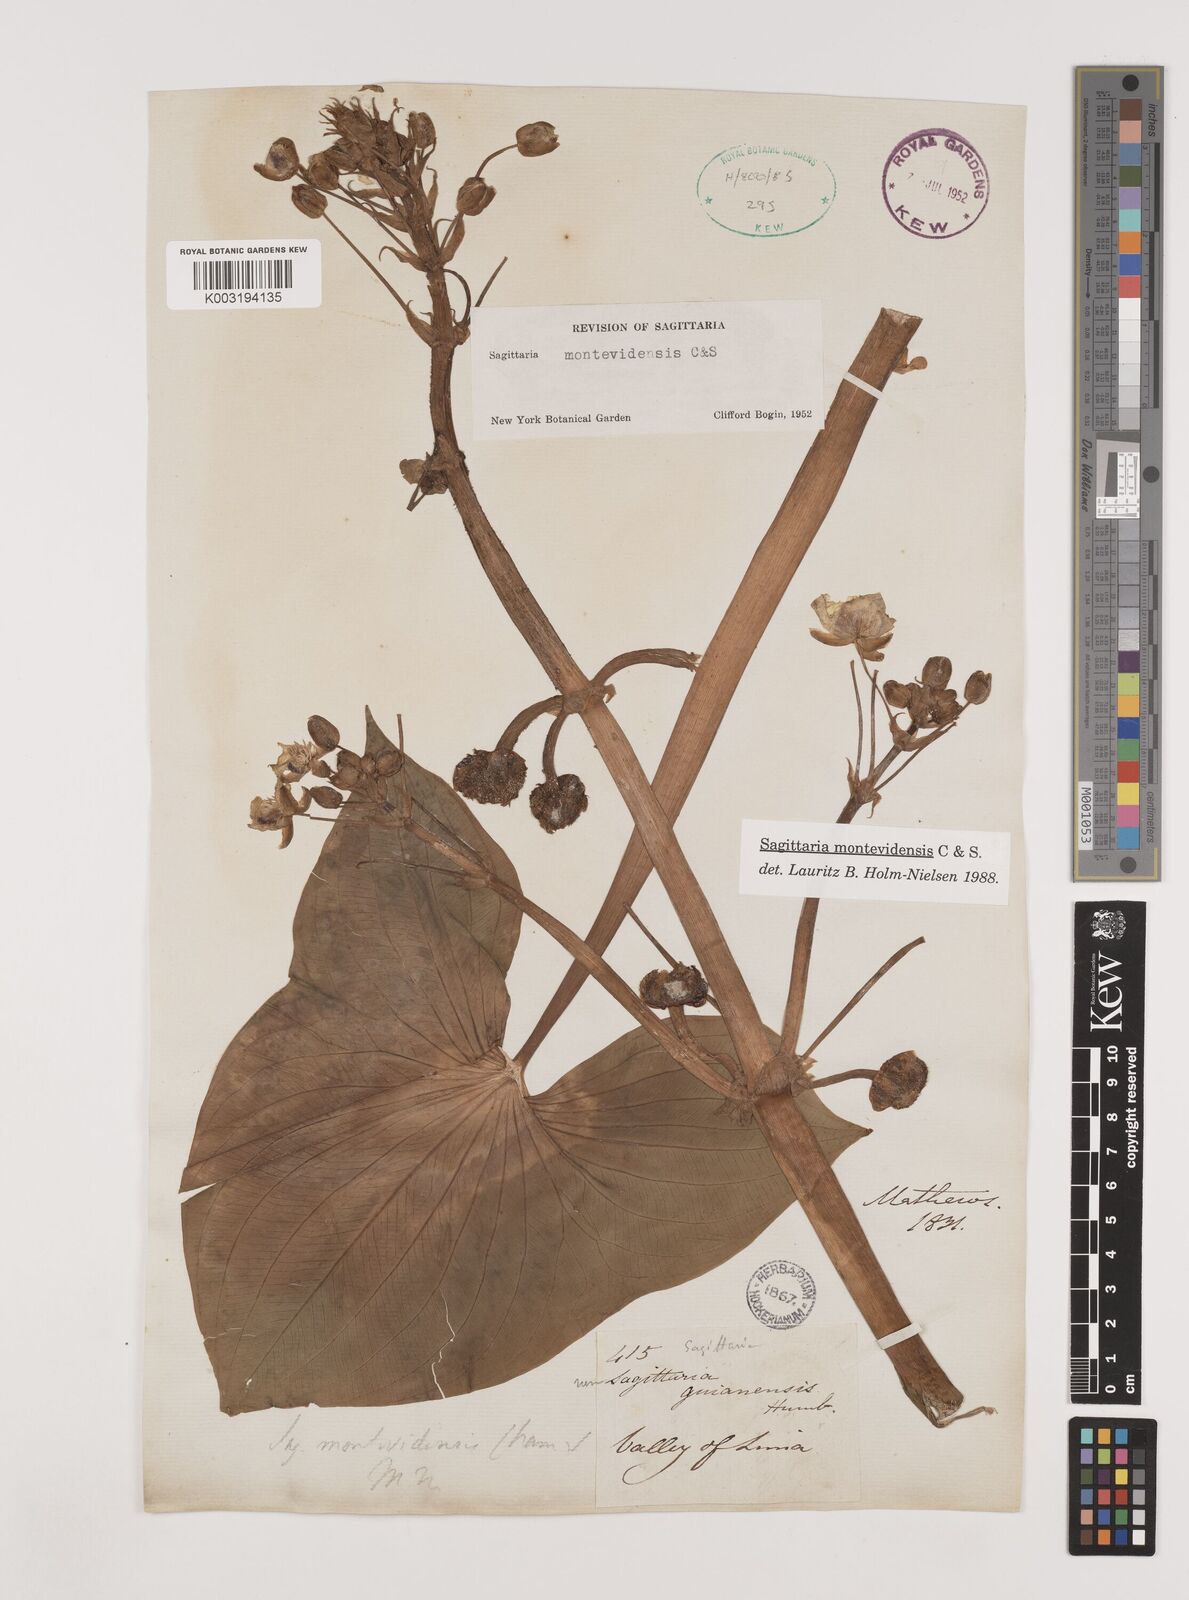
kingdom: Plantae
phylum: Tracheophyta
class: Liliopsida
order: Alismatales
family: Alismataceae
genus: Sagittaria
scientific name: Sagittaria montevidensis
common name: Giant arrowhead
